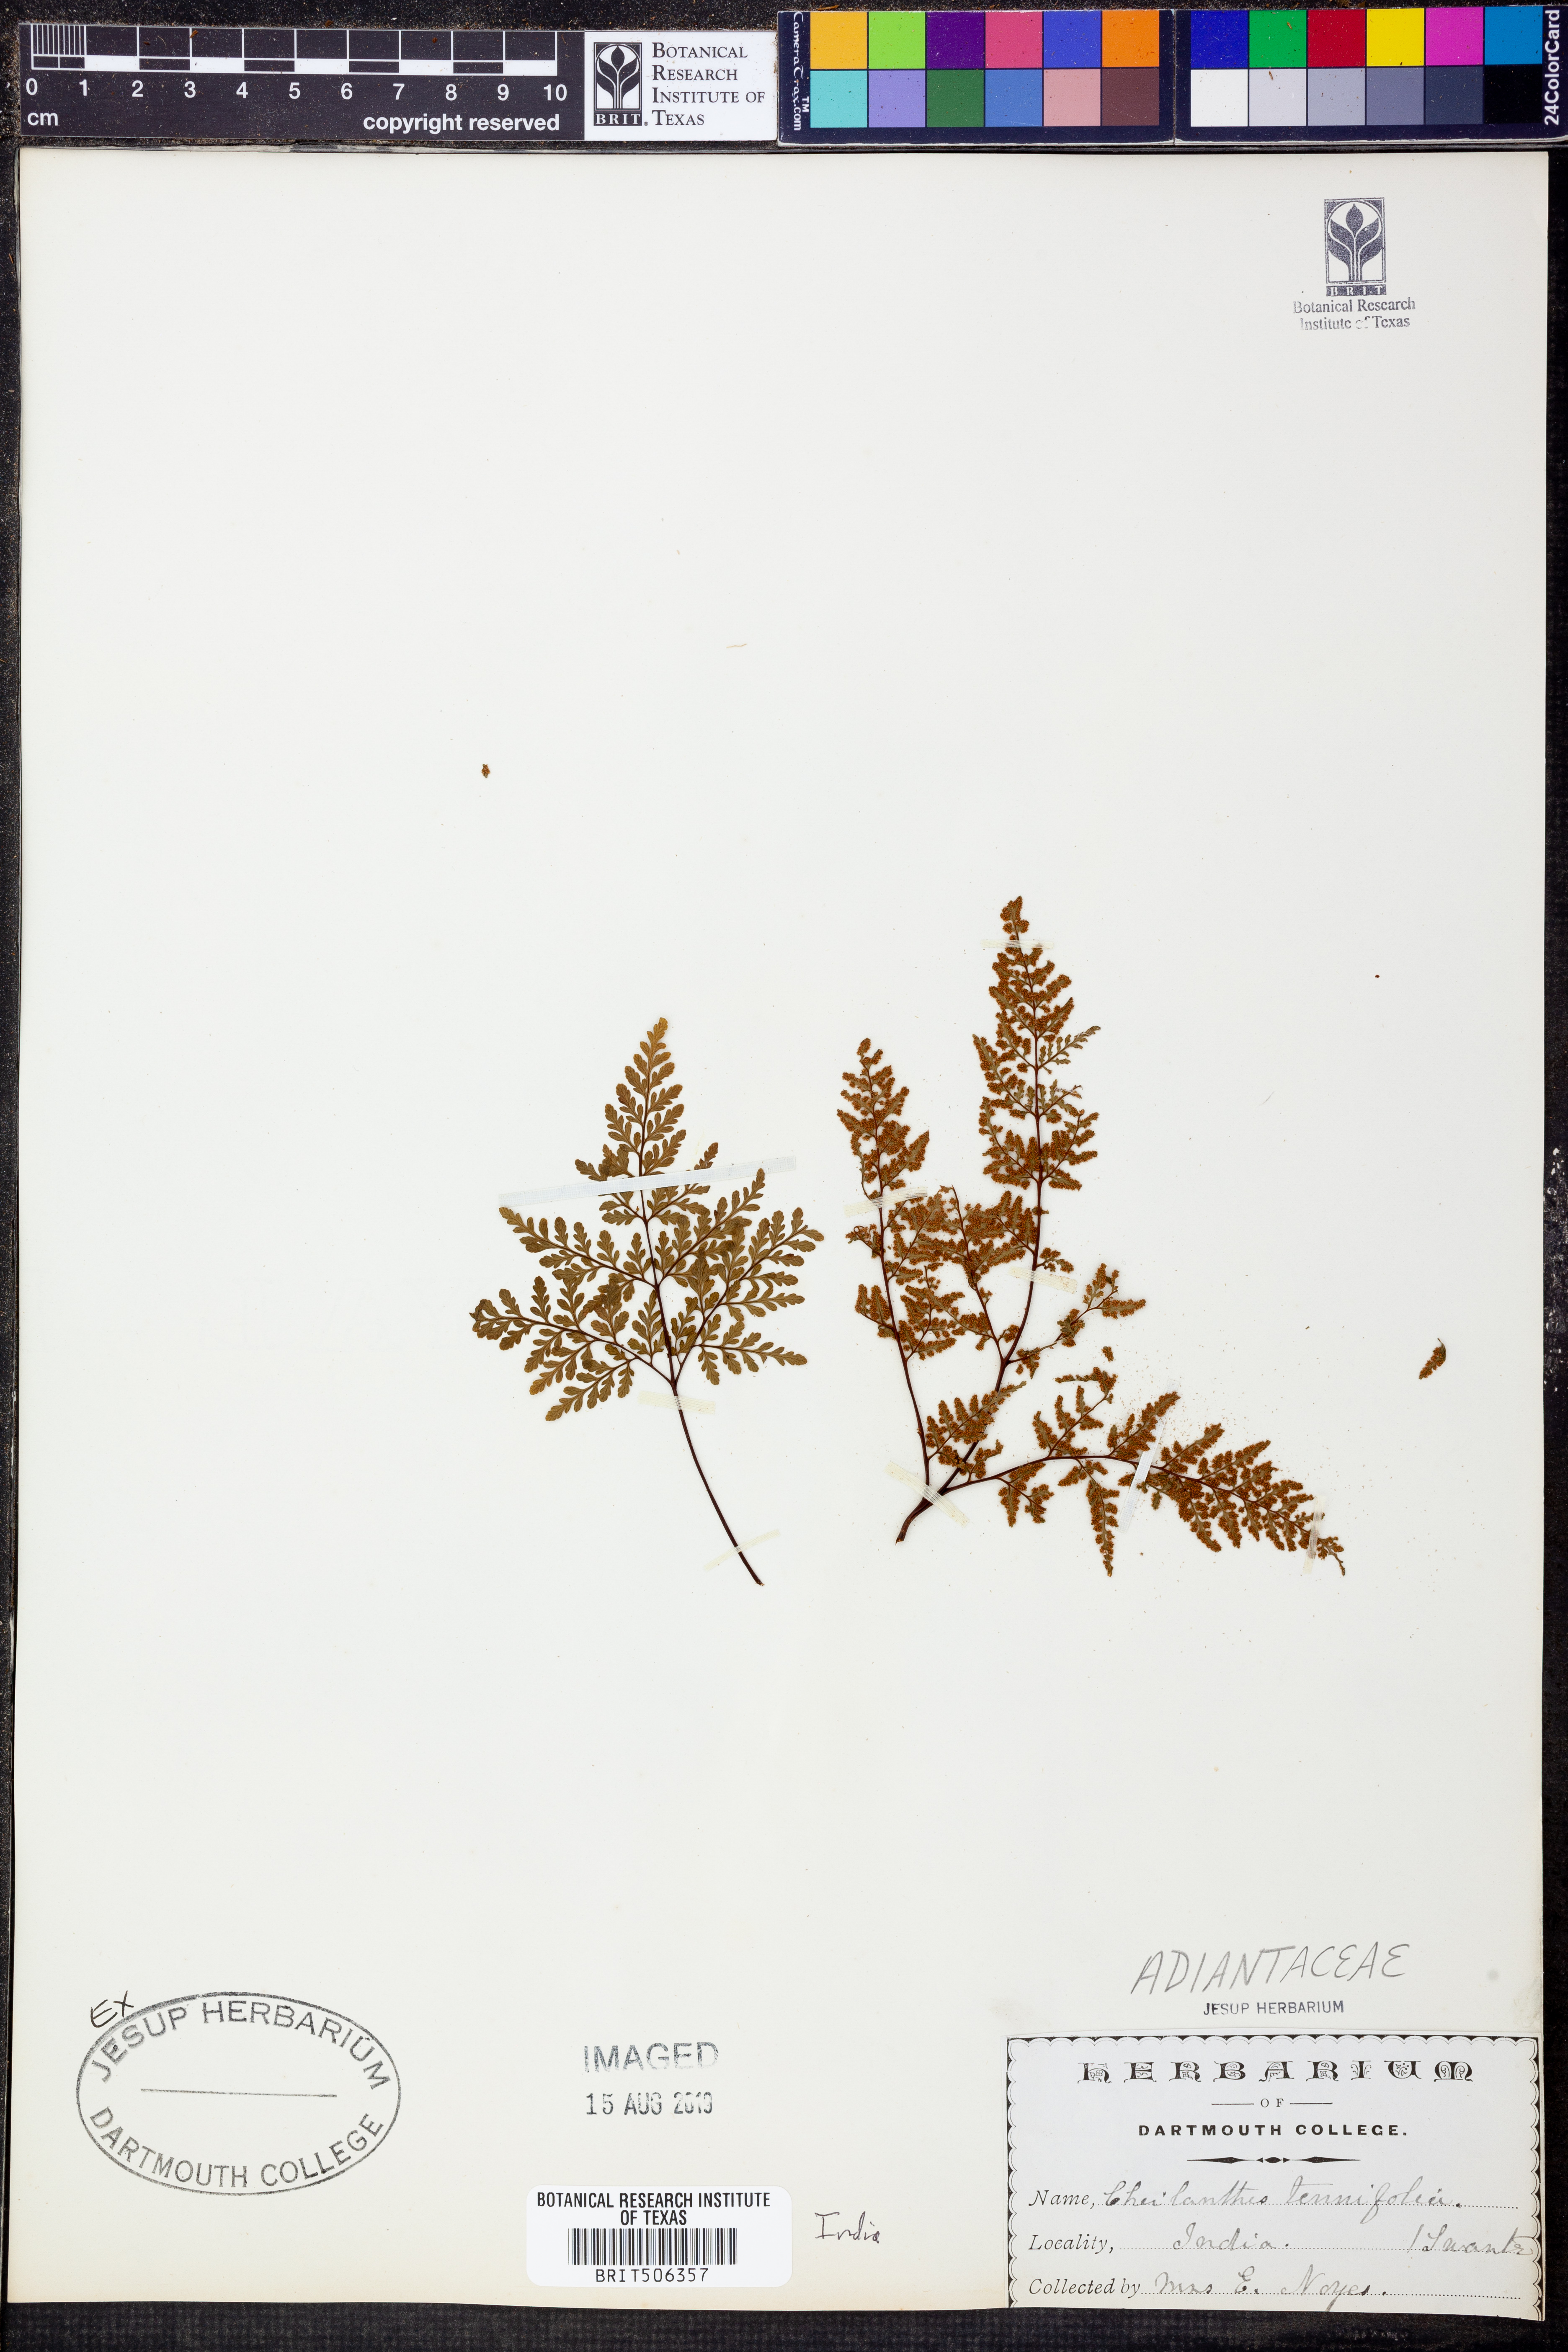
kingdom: Plantae
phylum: Tracheophyta
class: Polypodiopsida
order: Polypodiales
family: Pteridaceae
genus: Cheilanthes
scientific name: Cheilanthes tenuifolia
